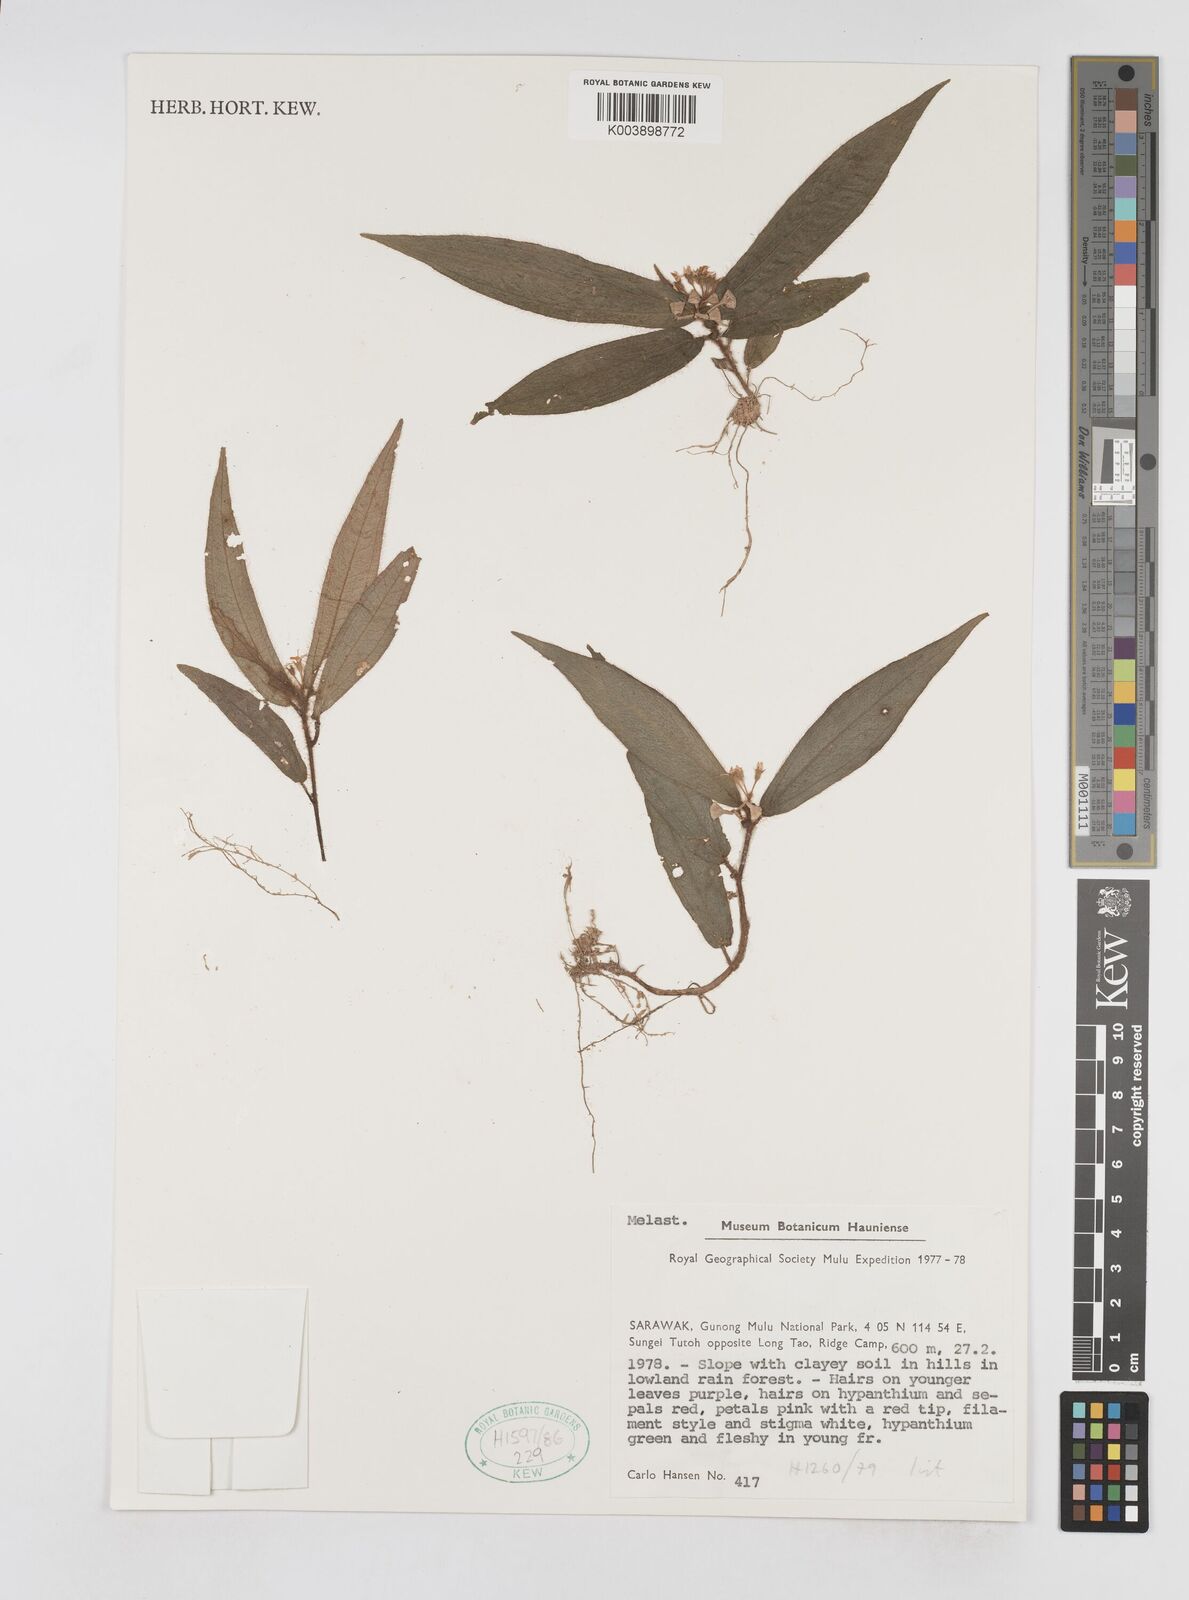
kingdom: Plantae
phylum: Tracheophyta
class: Magnoliopsida
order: Myrtales
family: Melastomataceae
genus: Sonerila
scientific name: Sonerila
